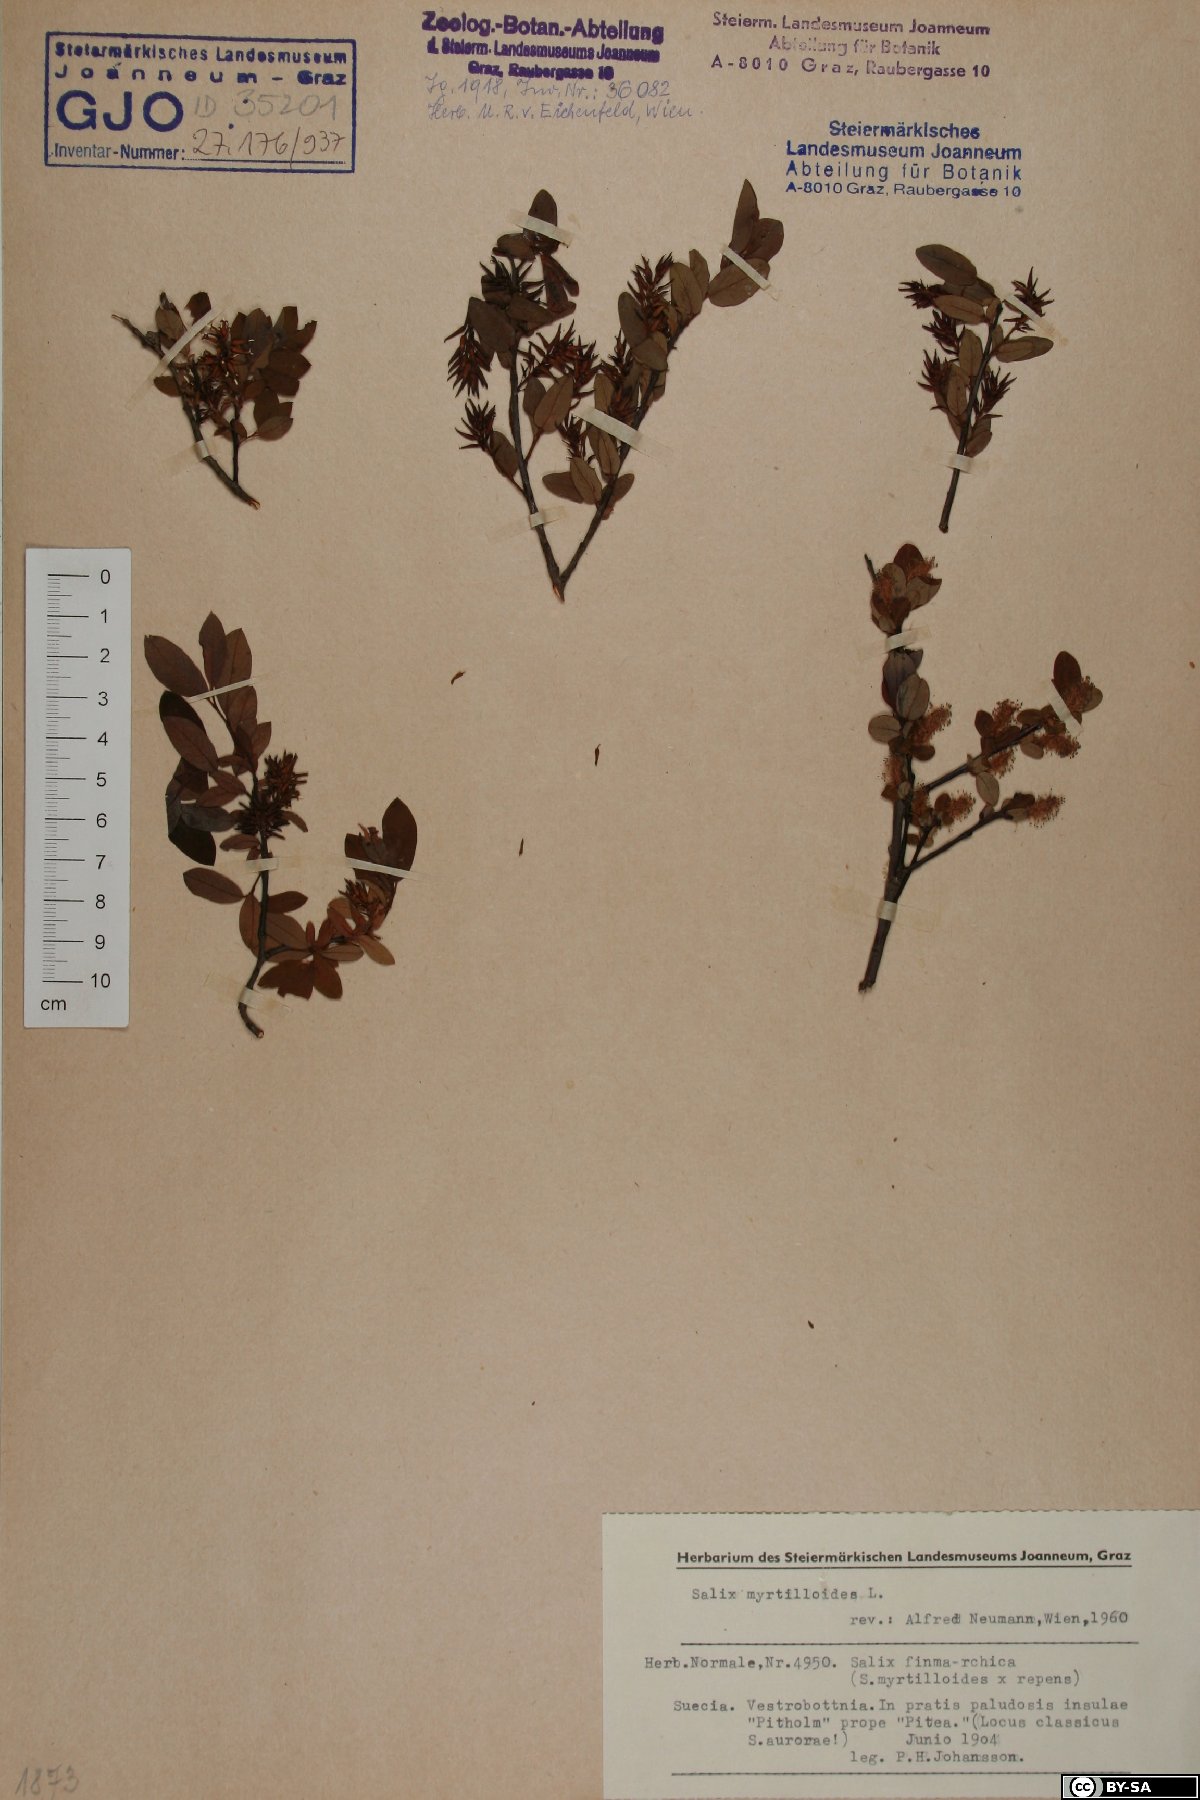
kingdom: Plantae
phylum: Tracheophyta
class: Magnoliopsida
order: Malpighiales
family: Salicaceae
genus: Salix
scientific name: Salix myrtilloides
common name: Myrtle-leaved willow
